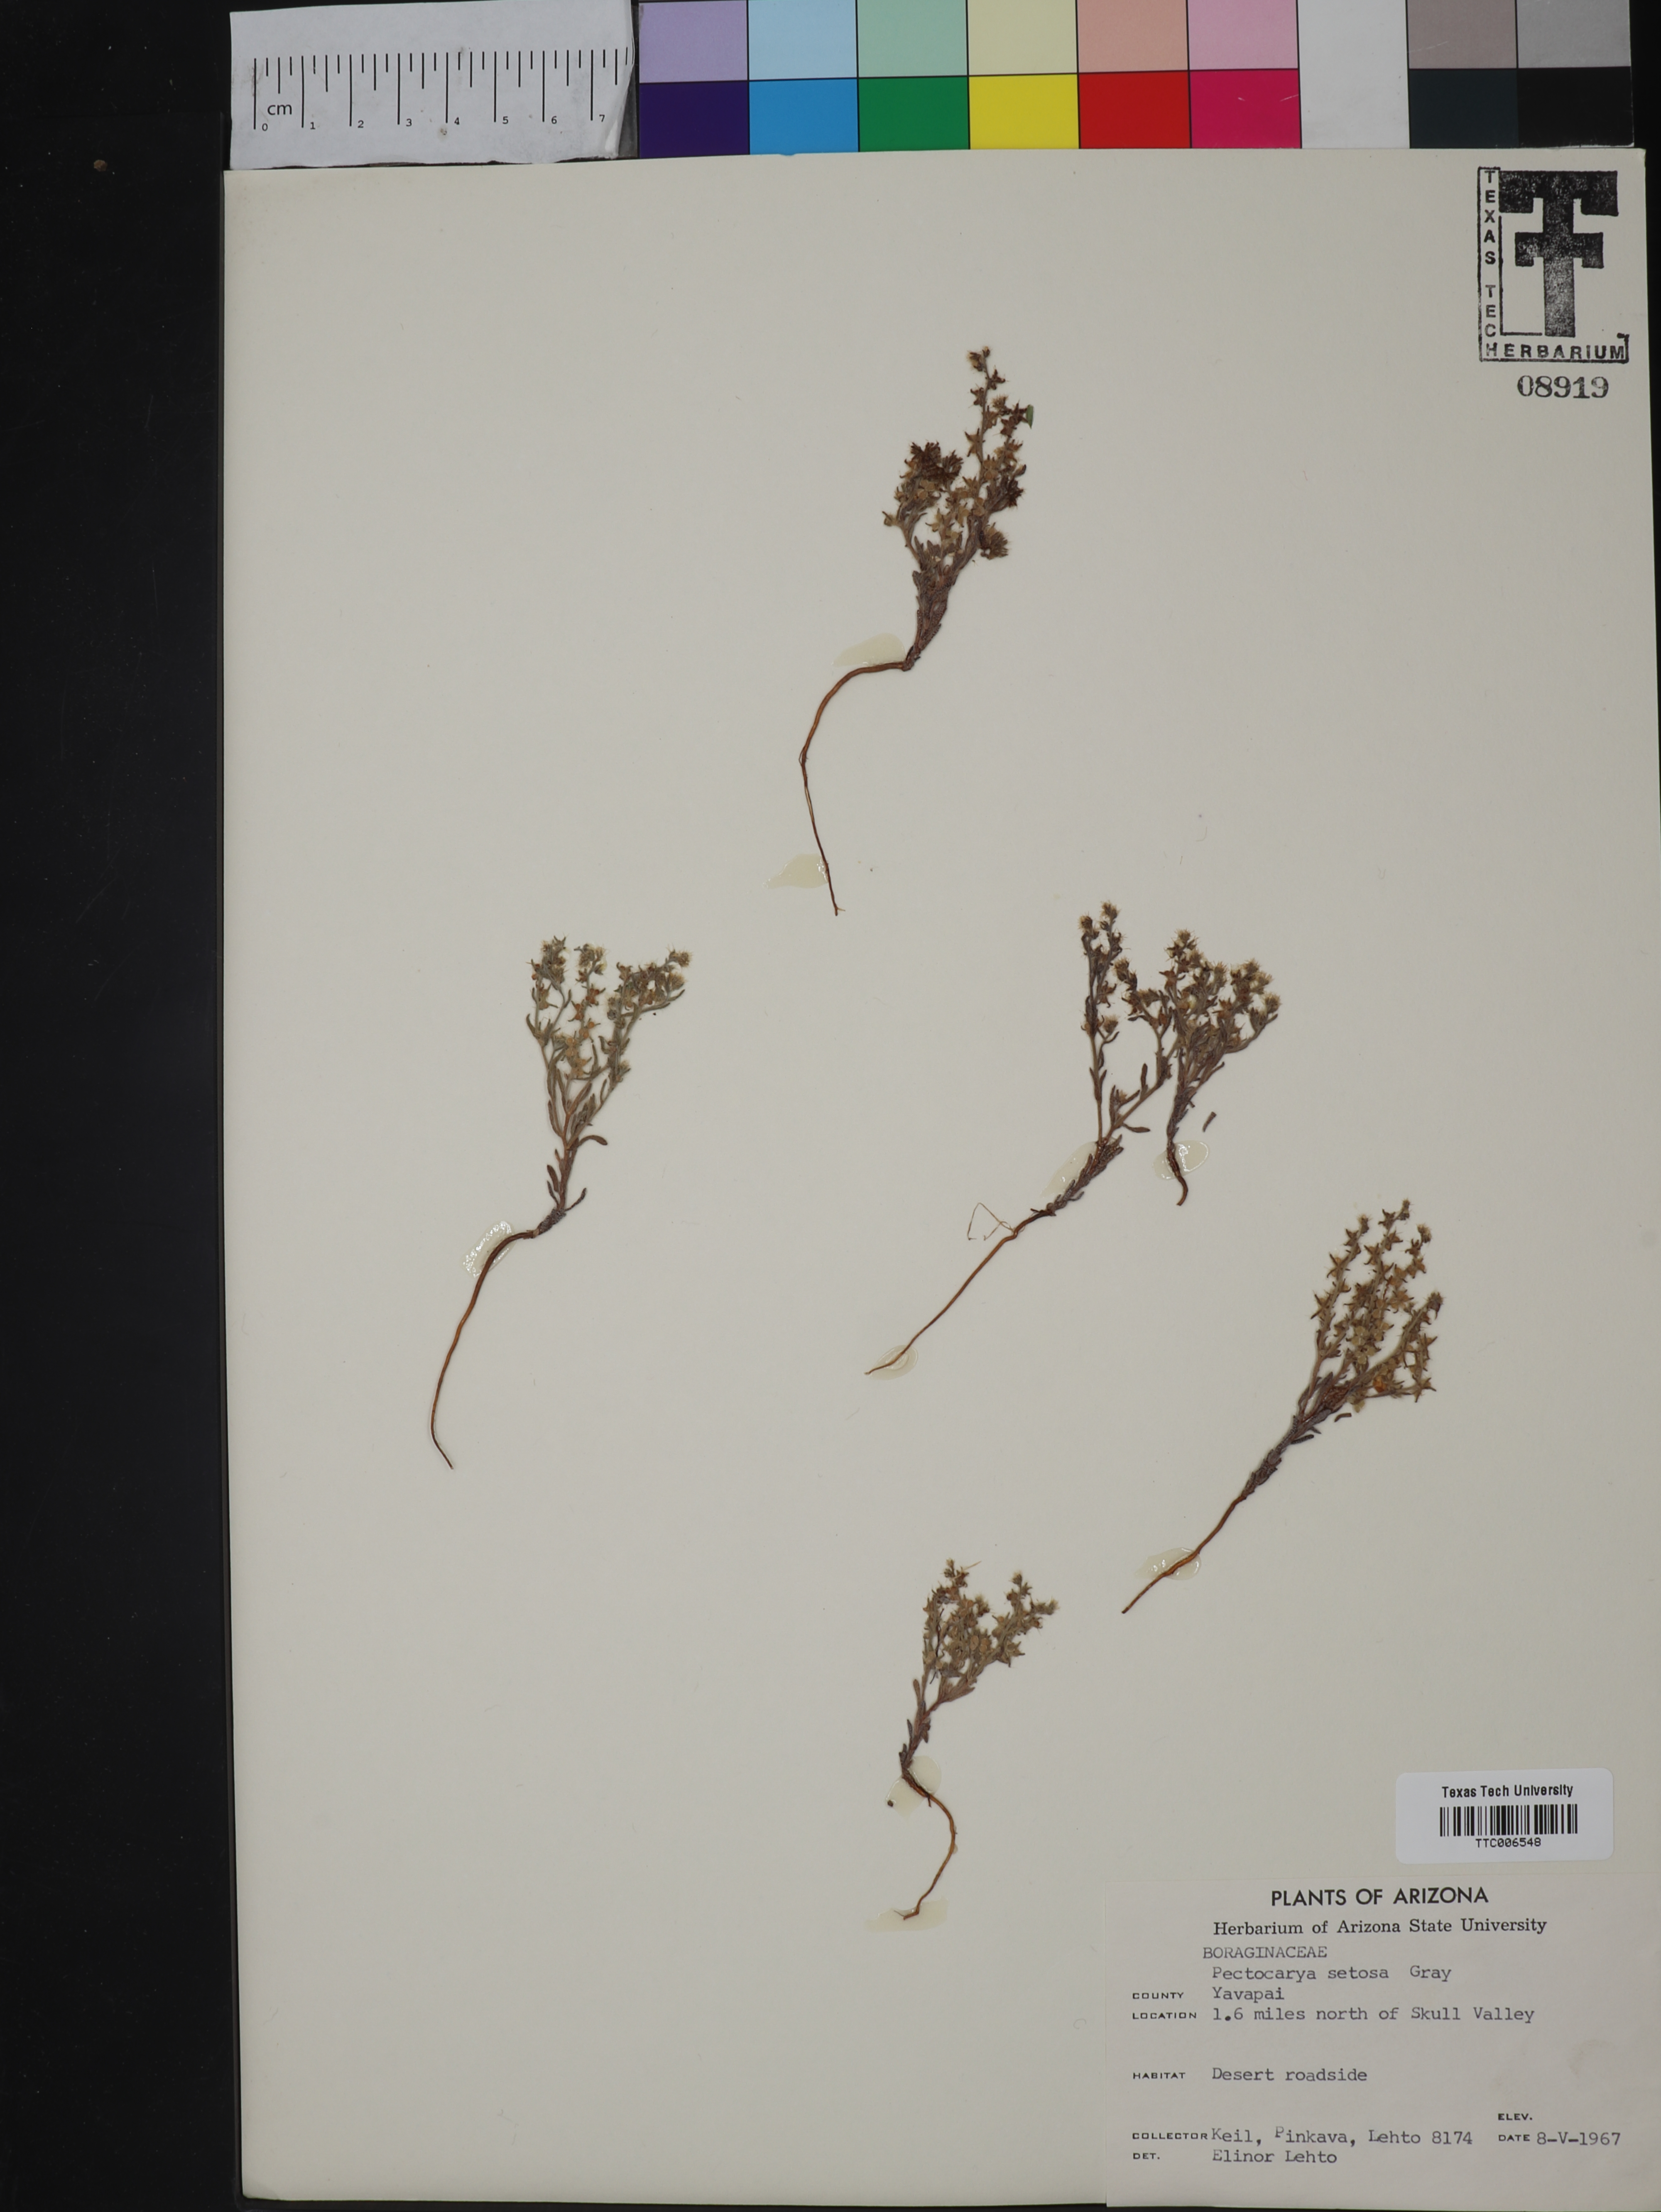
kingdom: Plantae
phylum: Tracheophyta
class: Magnoliopsida
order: Boraginales
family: Boraginaceae
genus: Pectocarya
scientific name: Pectocarya setosa
